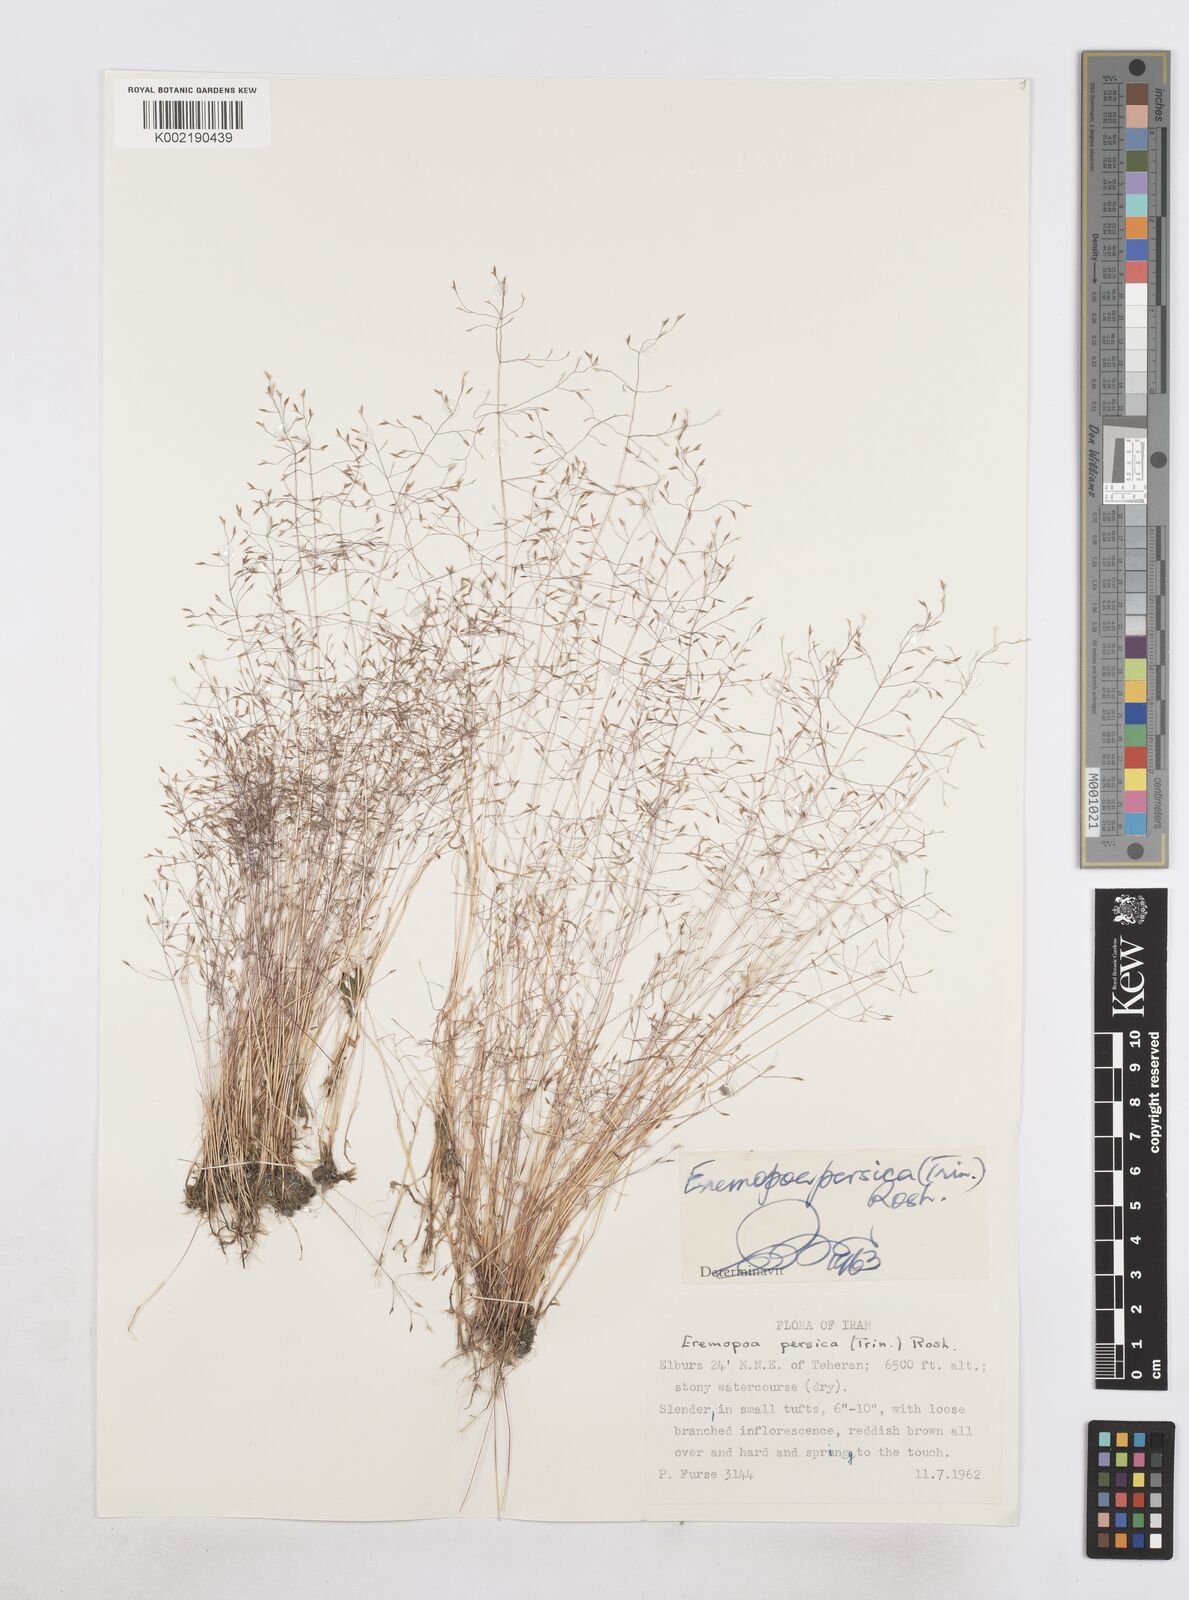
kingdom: Plantae
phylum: Tracheophyta
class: Liliopsida
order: Poales
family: Poaceae
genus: Poa
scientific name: Poa diaphora
